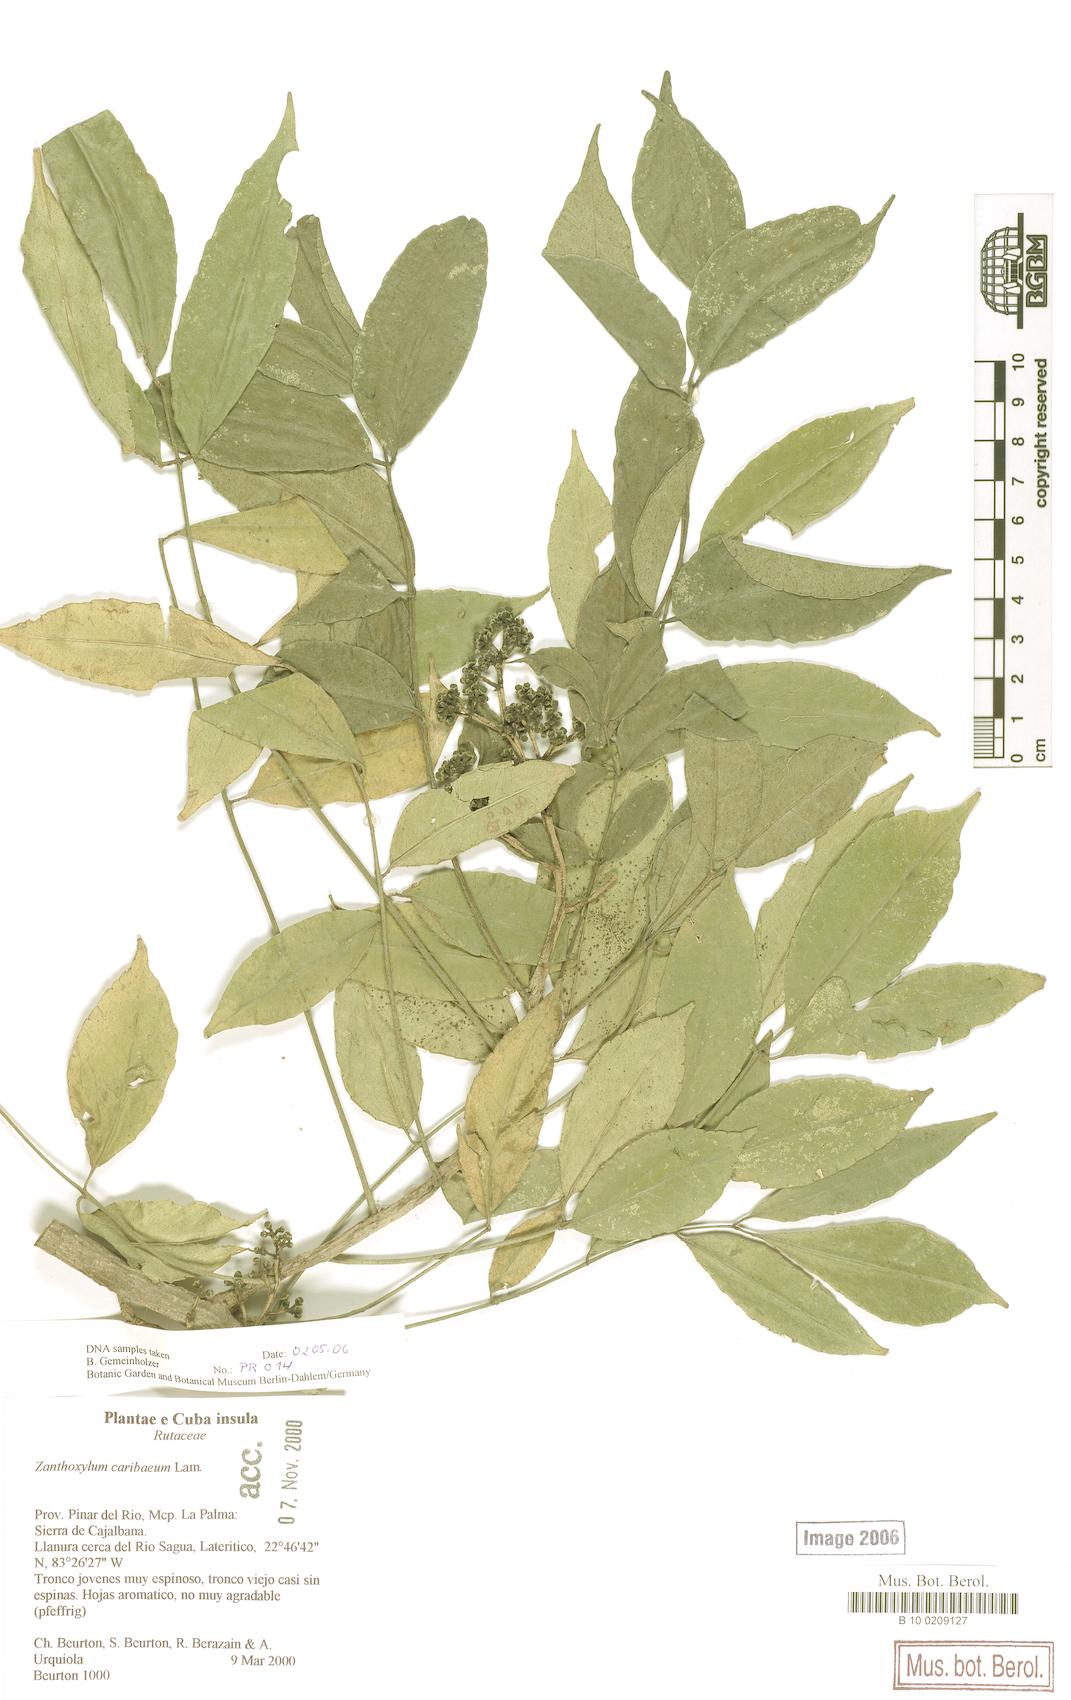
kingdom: Plantae
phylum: Tracheophyta
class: Magnoliopsida
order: Sapindales
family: Rutaceae
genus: Zanthoxylum
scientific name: Zanthoxylum caribaeum
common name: Prickly yellow
